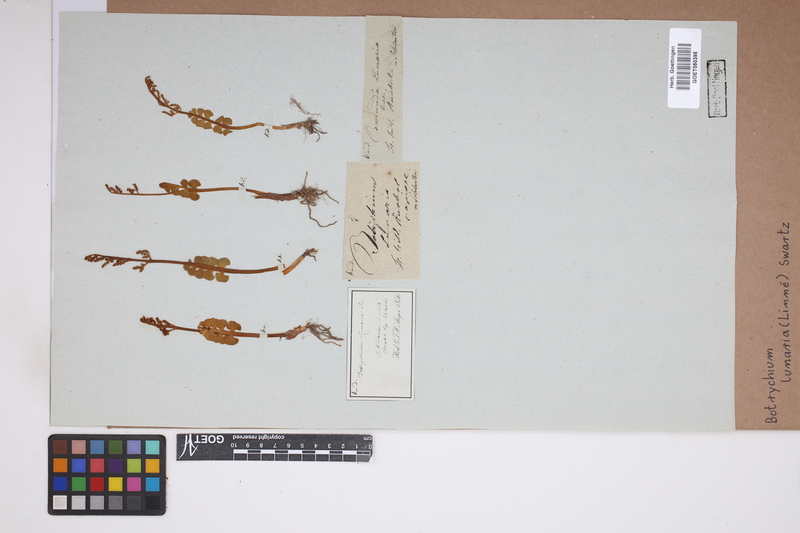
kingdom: Plantae
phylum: Tracheophyta
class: Polypodiopsida
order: Ophioglossales
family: Ophioglossaceae
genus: Botrychium
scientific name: Botrychium lunaria
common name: Moonwort
